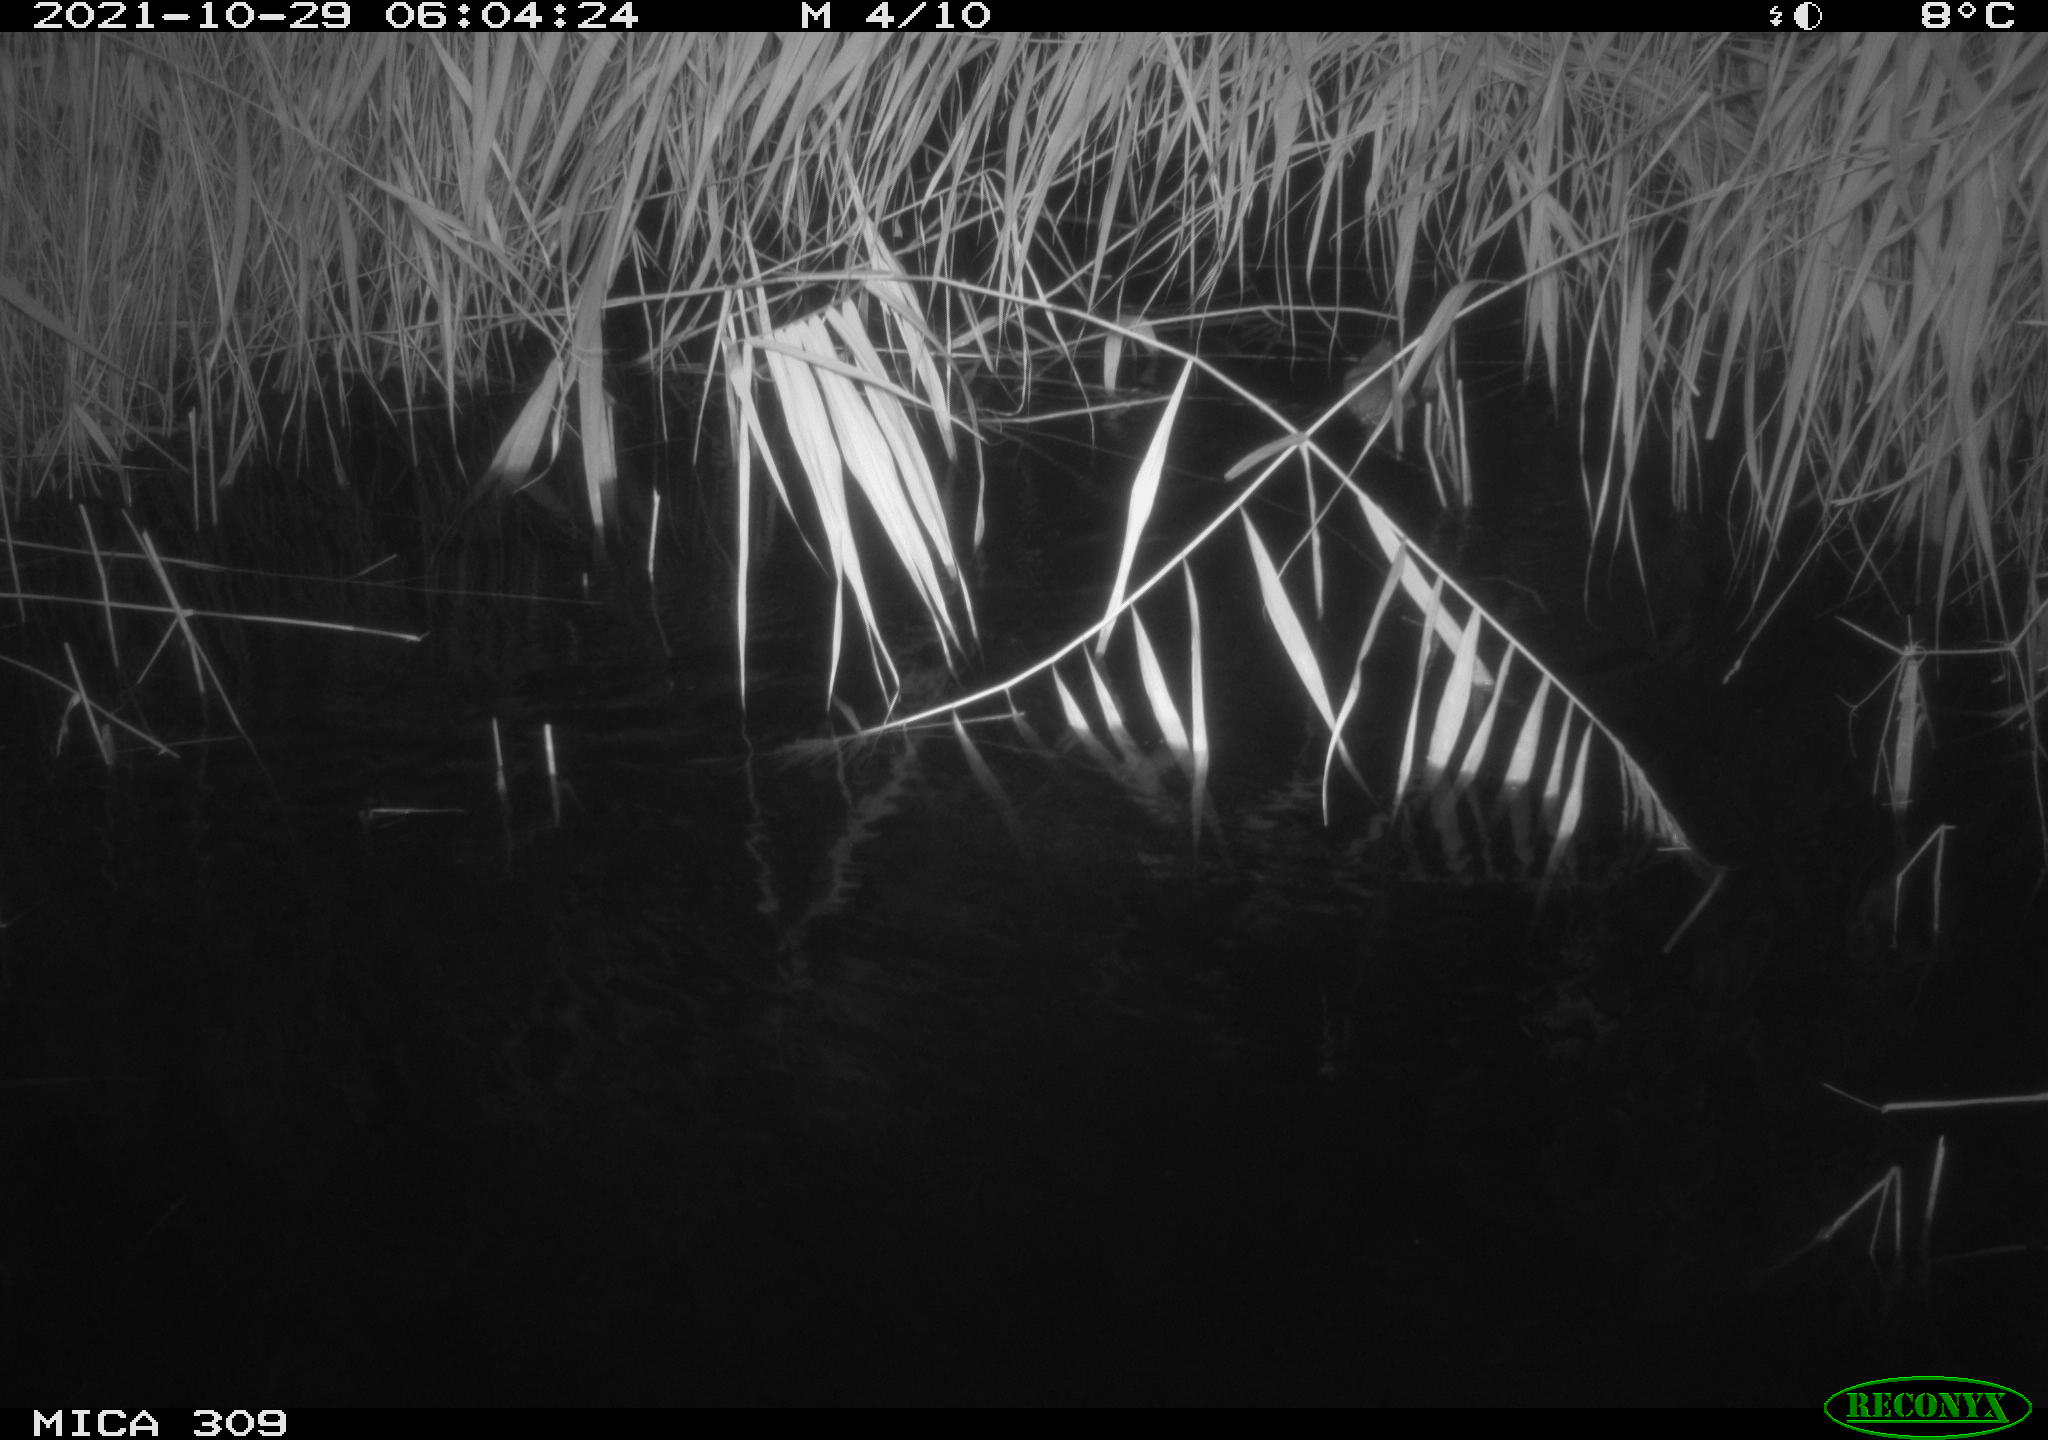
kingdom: Animalia
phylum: Chordata
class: Mammalia
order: Rodentia
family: Muridae
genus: Rattus
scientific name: Rattus norvegicus
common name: Brown rat
